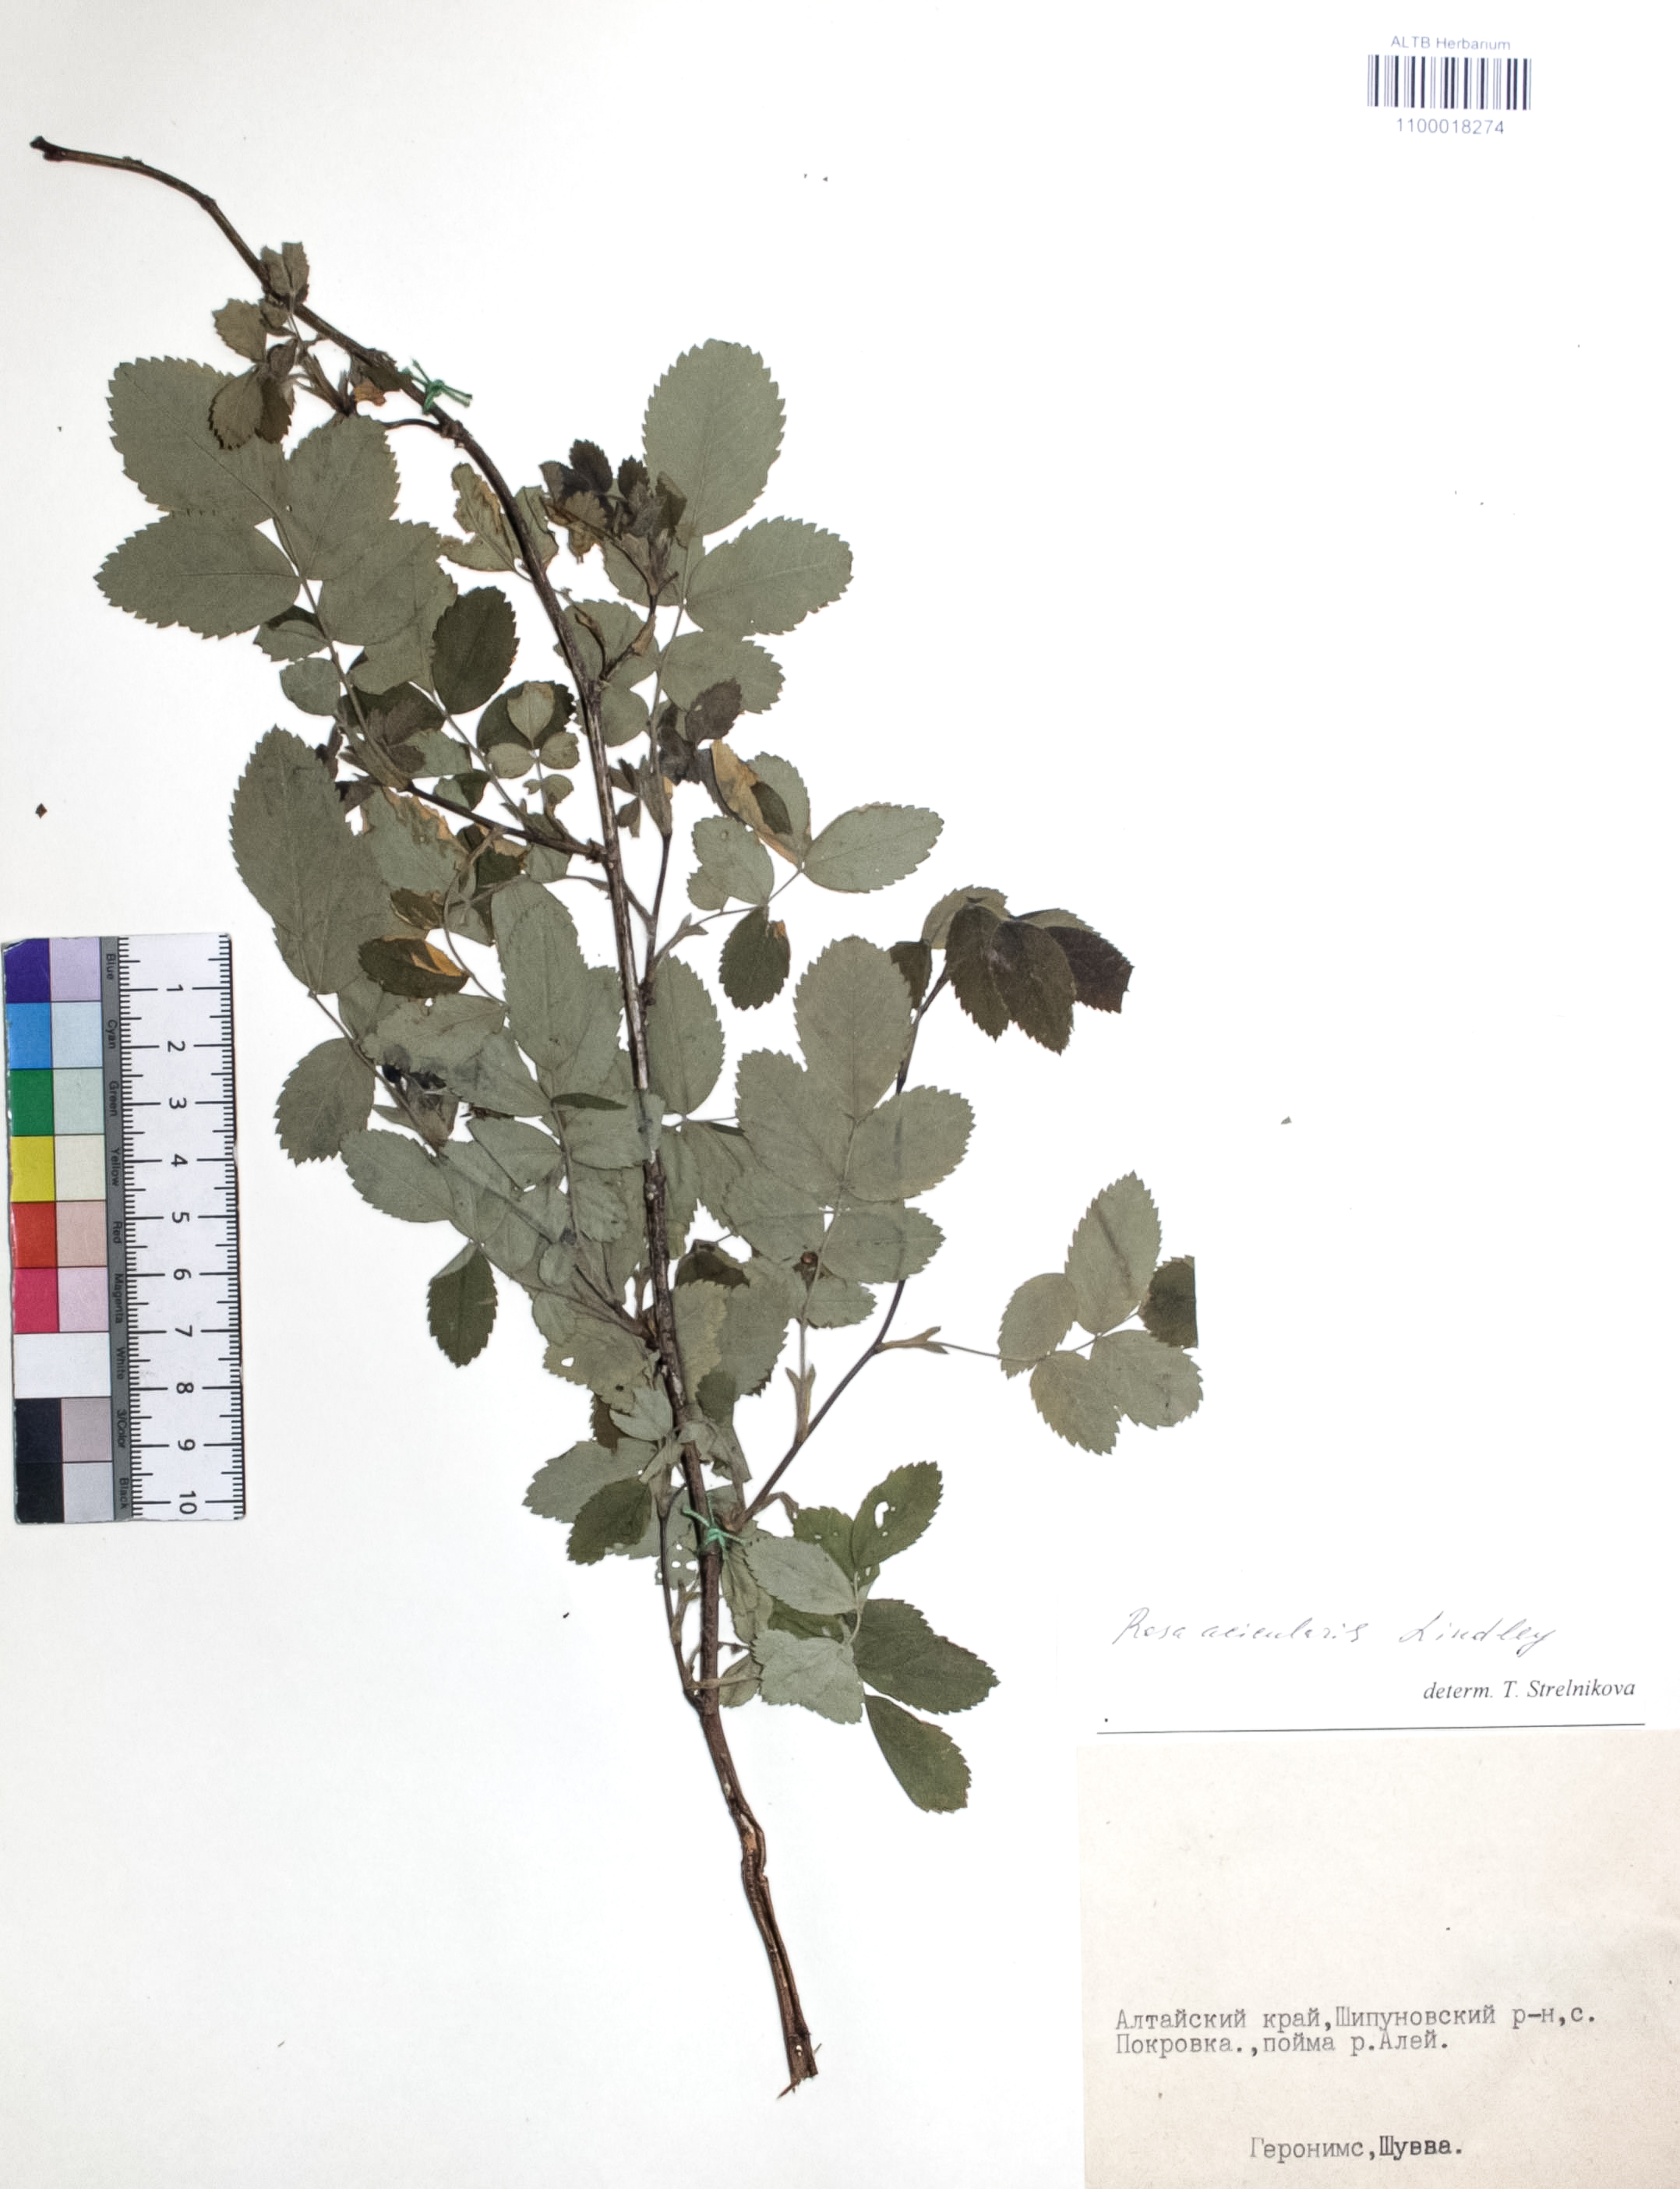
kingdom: Plantae
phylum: Tracheophyta
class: Magnoliopsida
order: Rosales
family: Rosaceae
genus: Rosa
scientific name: Rosa acicularis
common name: Prickly rose
